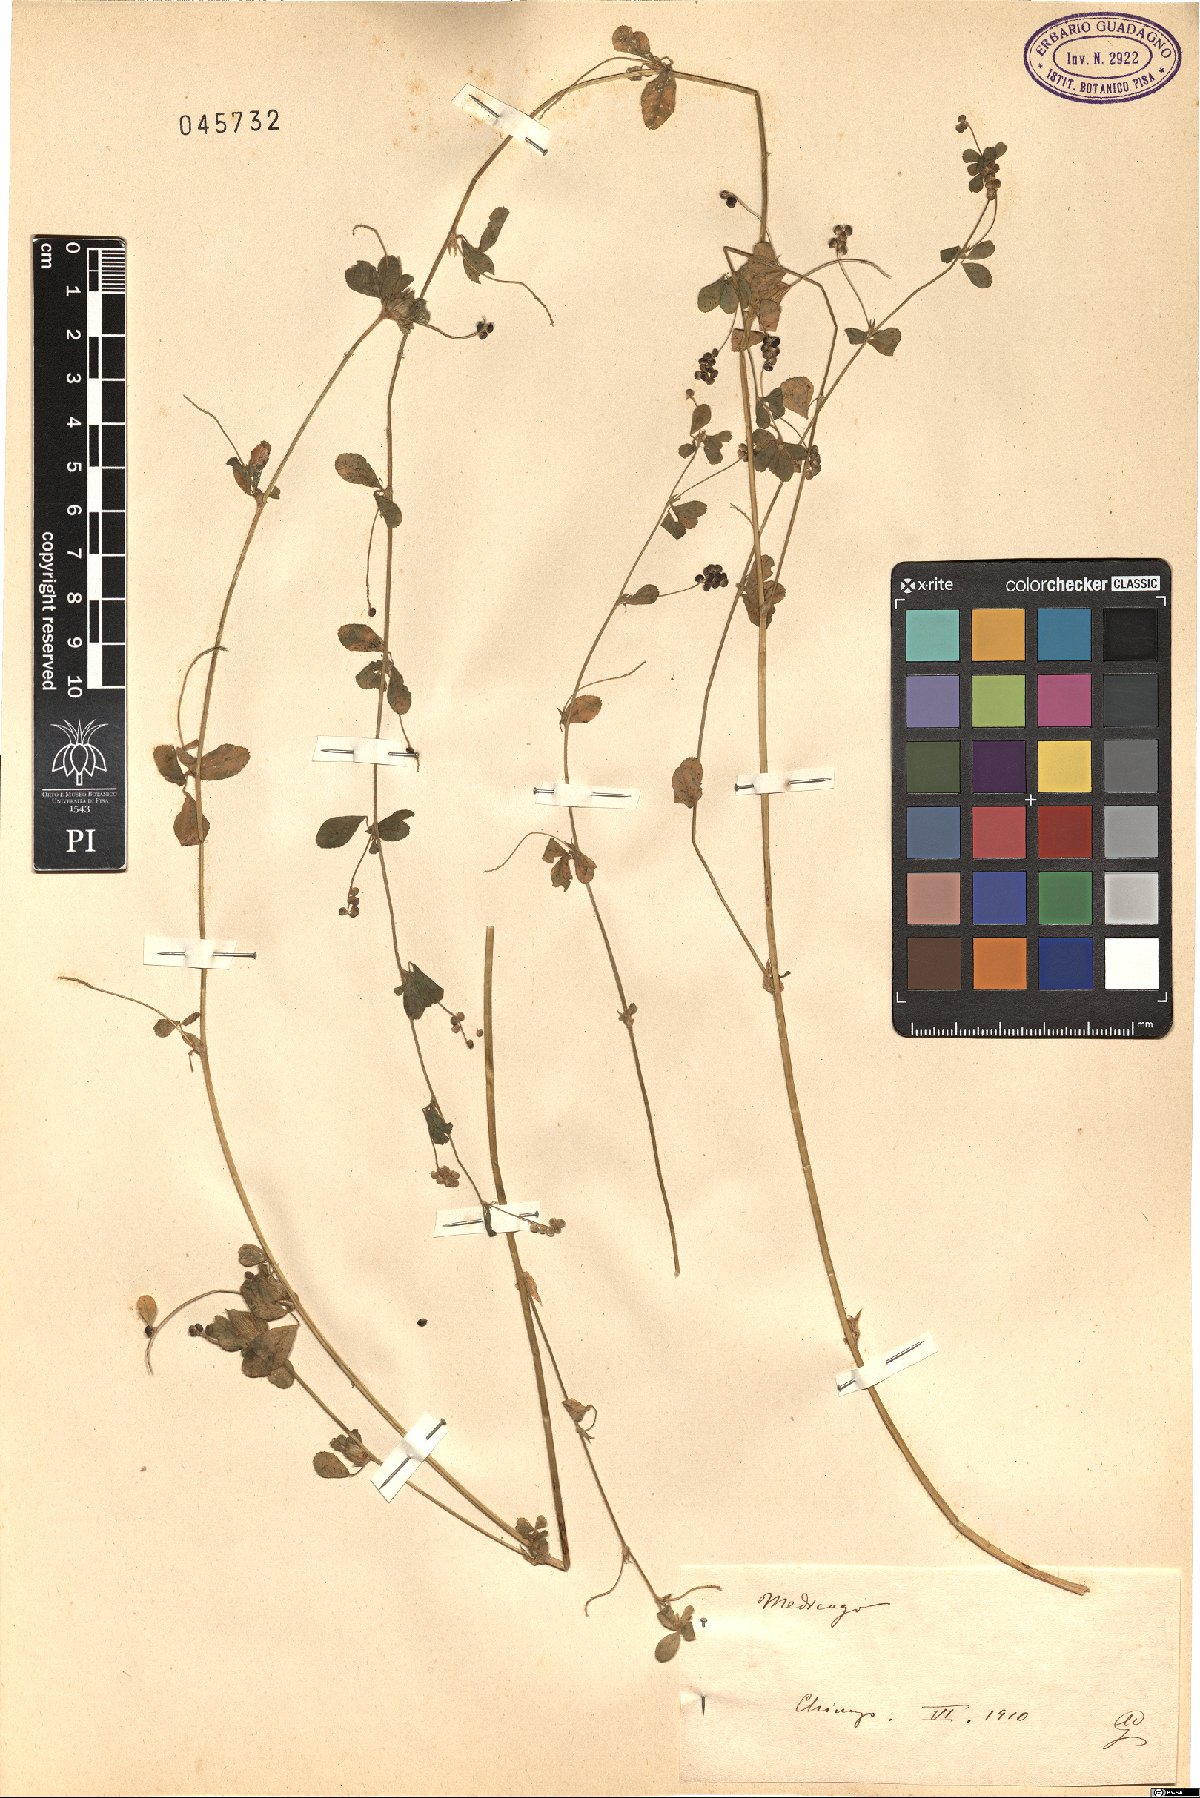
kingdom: Plantae
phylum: Tracheophyta
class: Magnoliopsida
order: Fabales
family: Fabaceae
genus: Medicago
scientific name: Medicago
